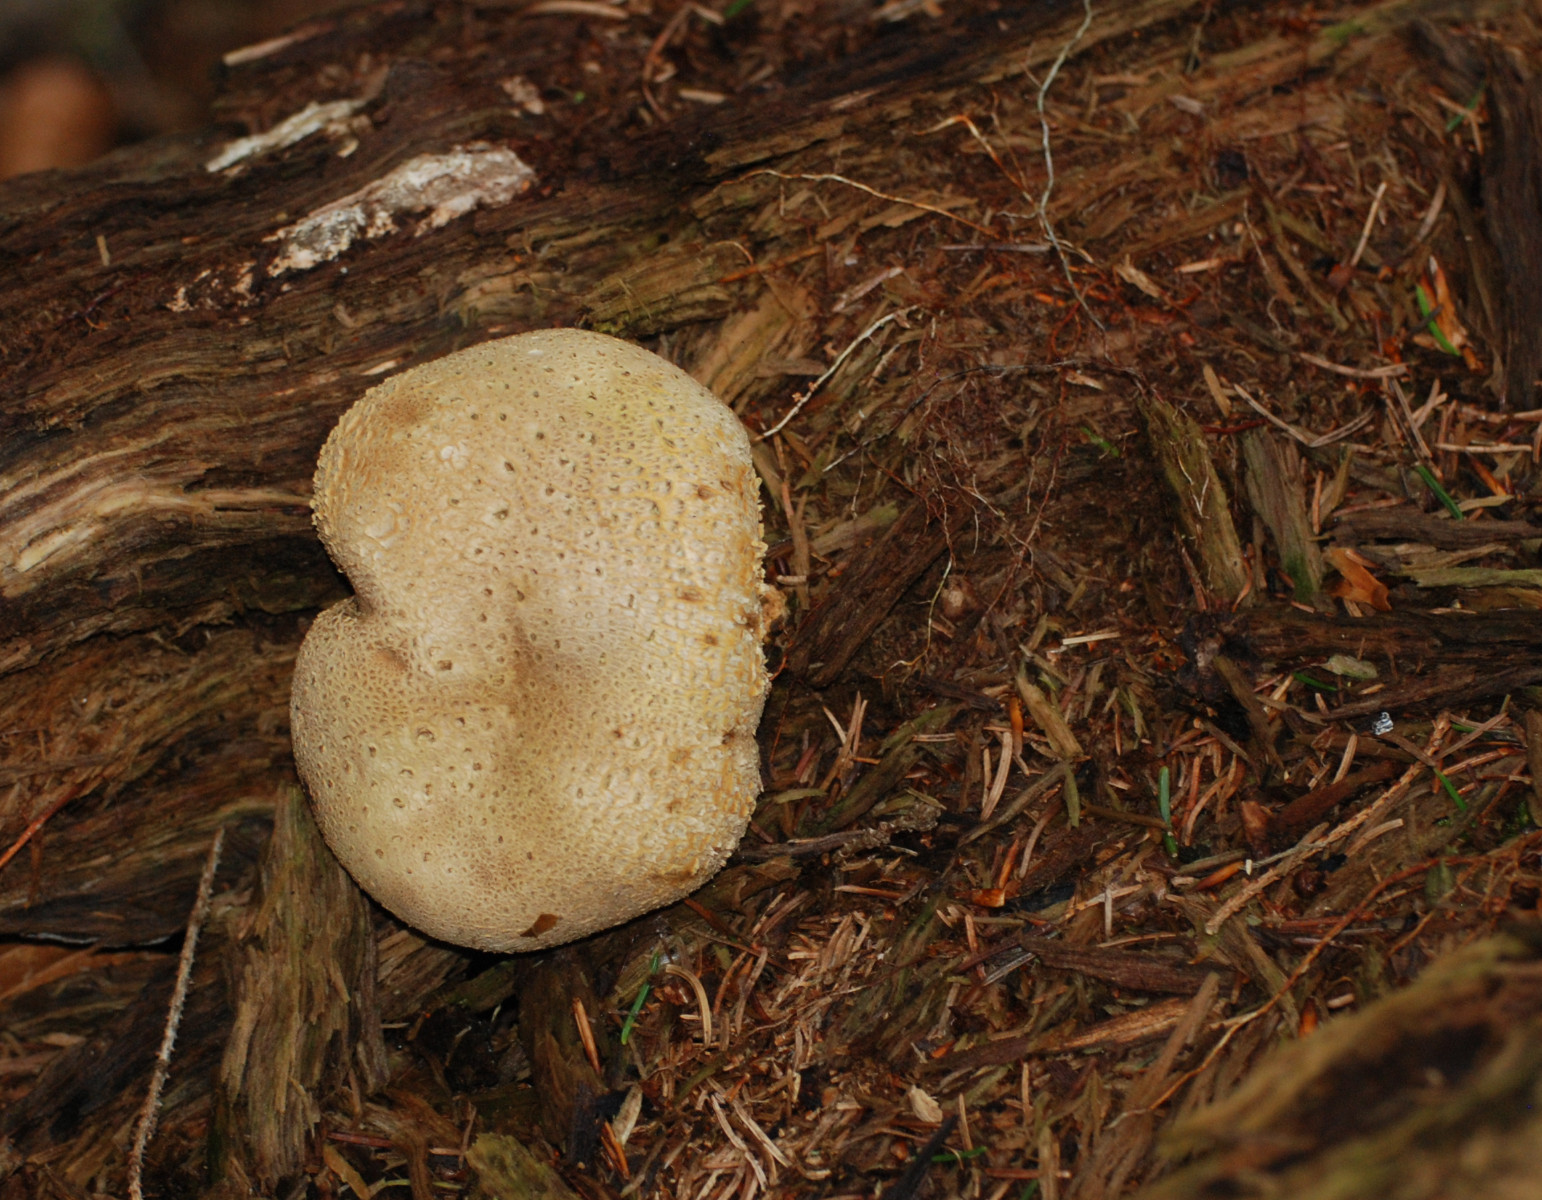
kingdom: Fungi
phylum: Basidiomycota
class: Agaricomycetes
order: Boletales
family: Sclerodermataceae
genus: Scleroderma
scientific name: Scleroderma citrinum
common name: almindelig bruskbold
